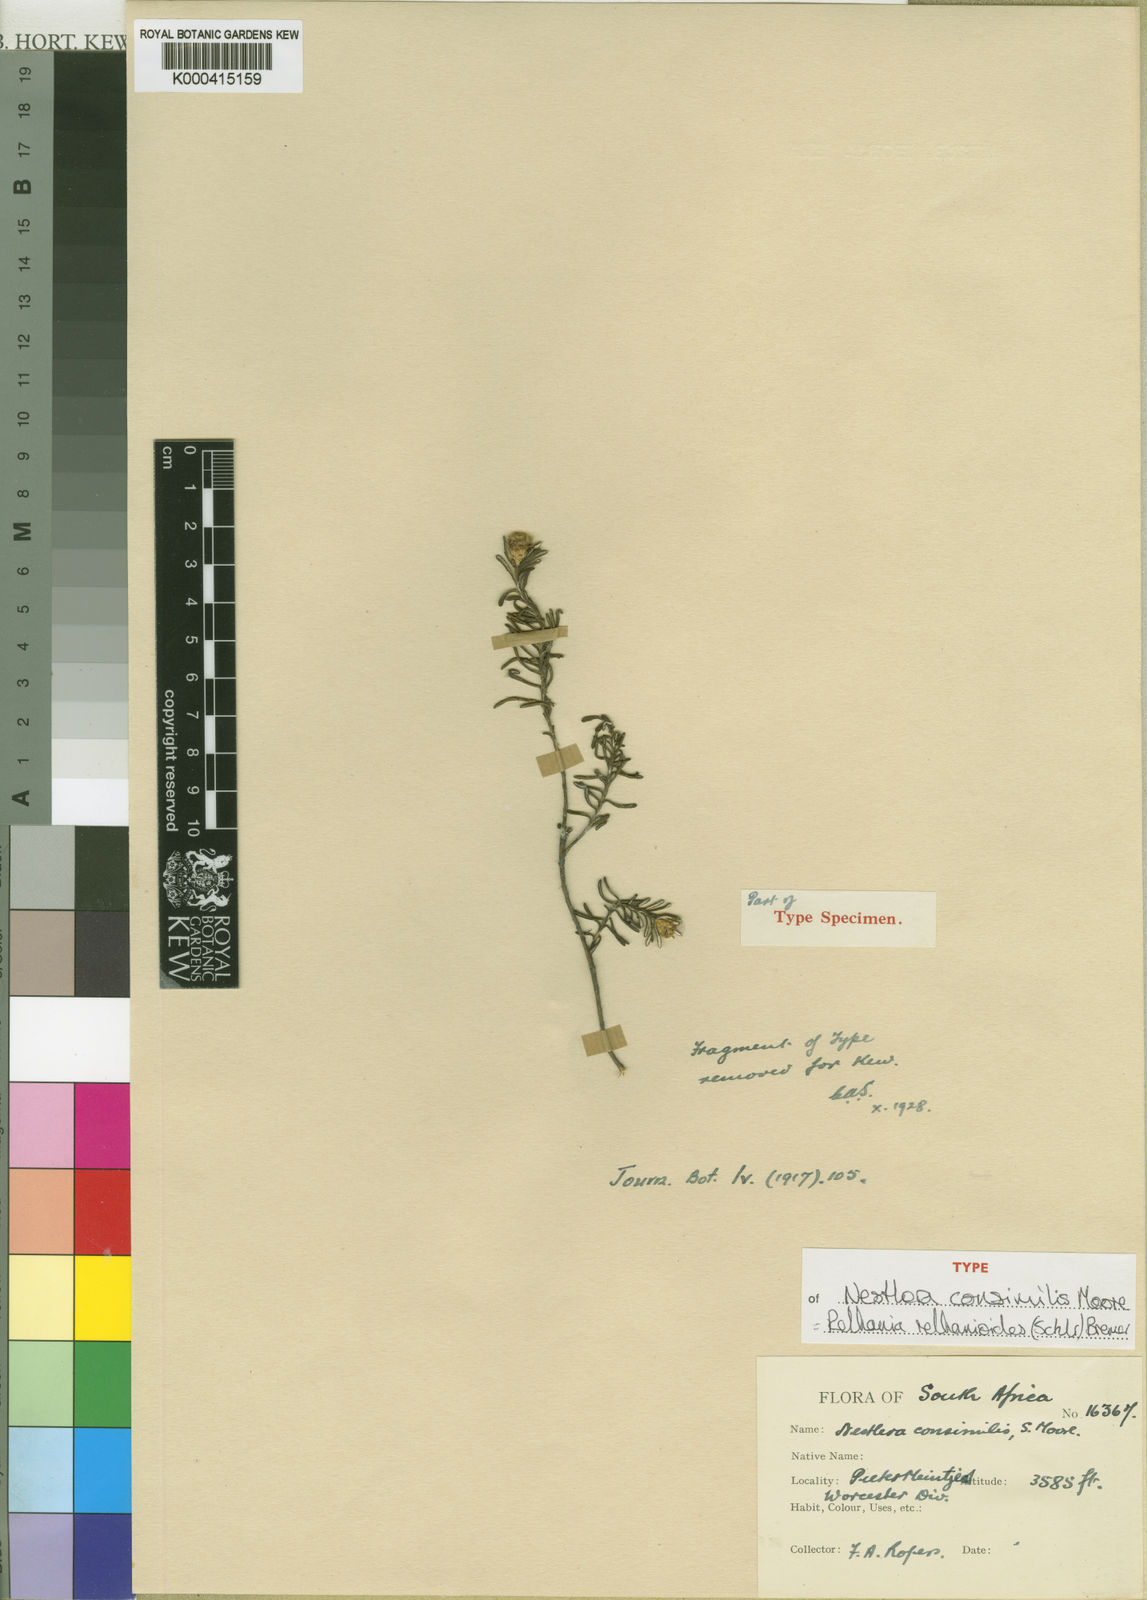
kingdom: Plantae
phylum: Tracheophyta
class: Magnoliopsida
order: Asterales
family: Asteraceae
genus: Oedera
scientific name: Oedera relhanioides
